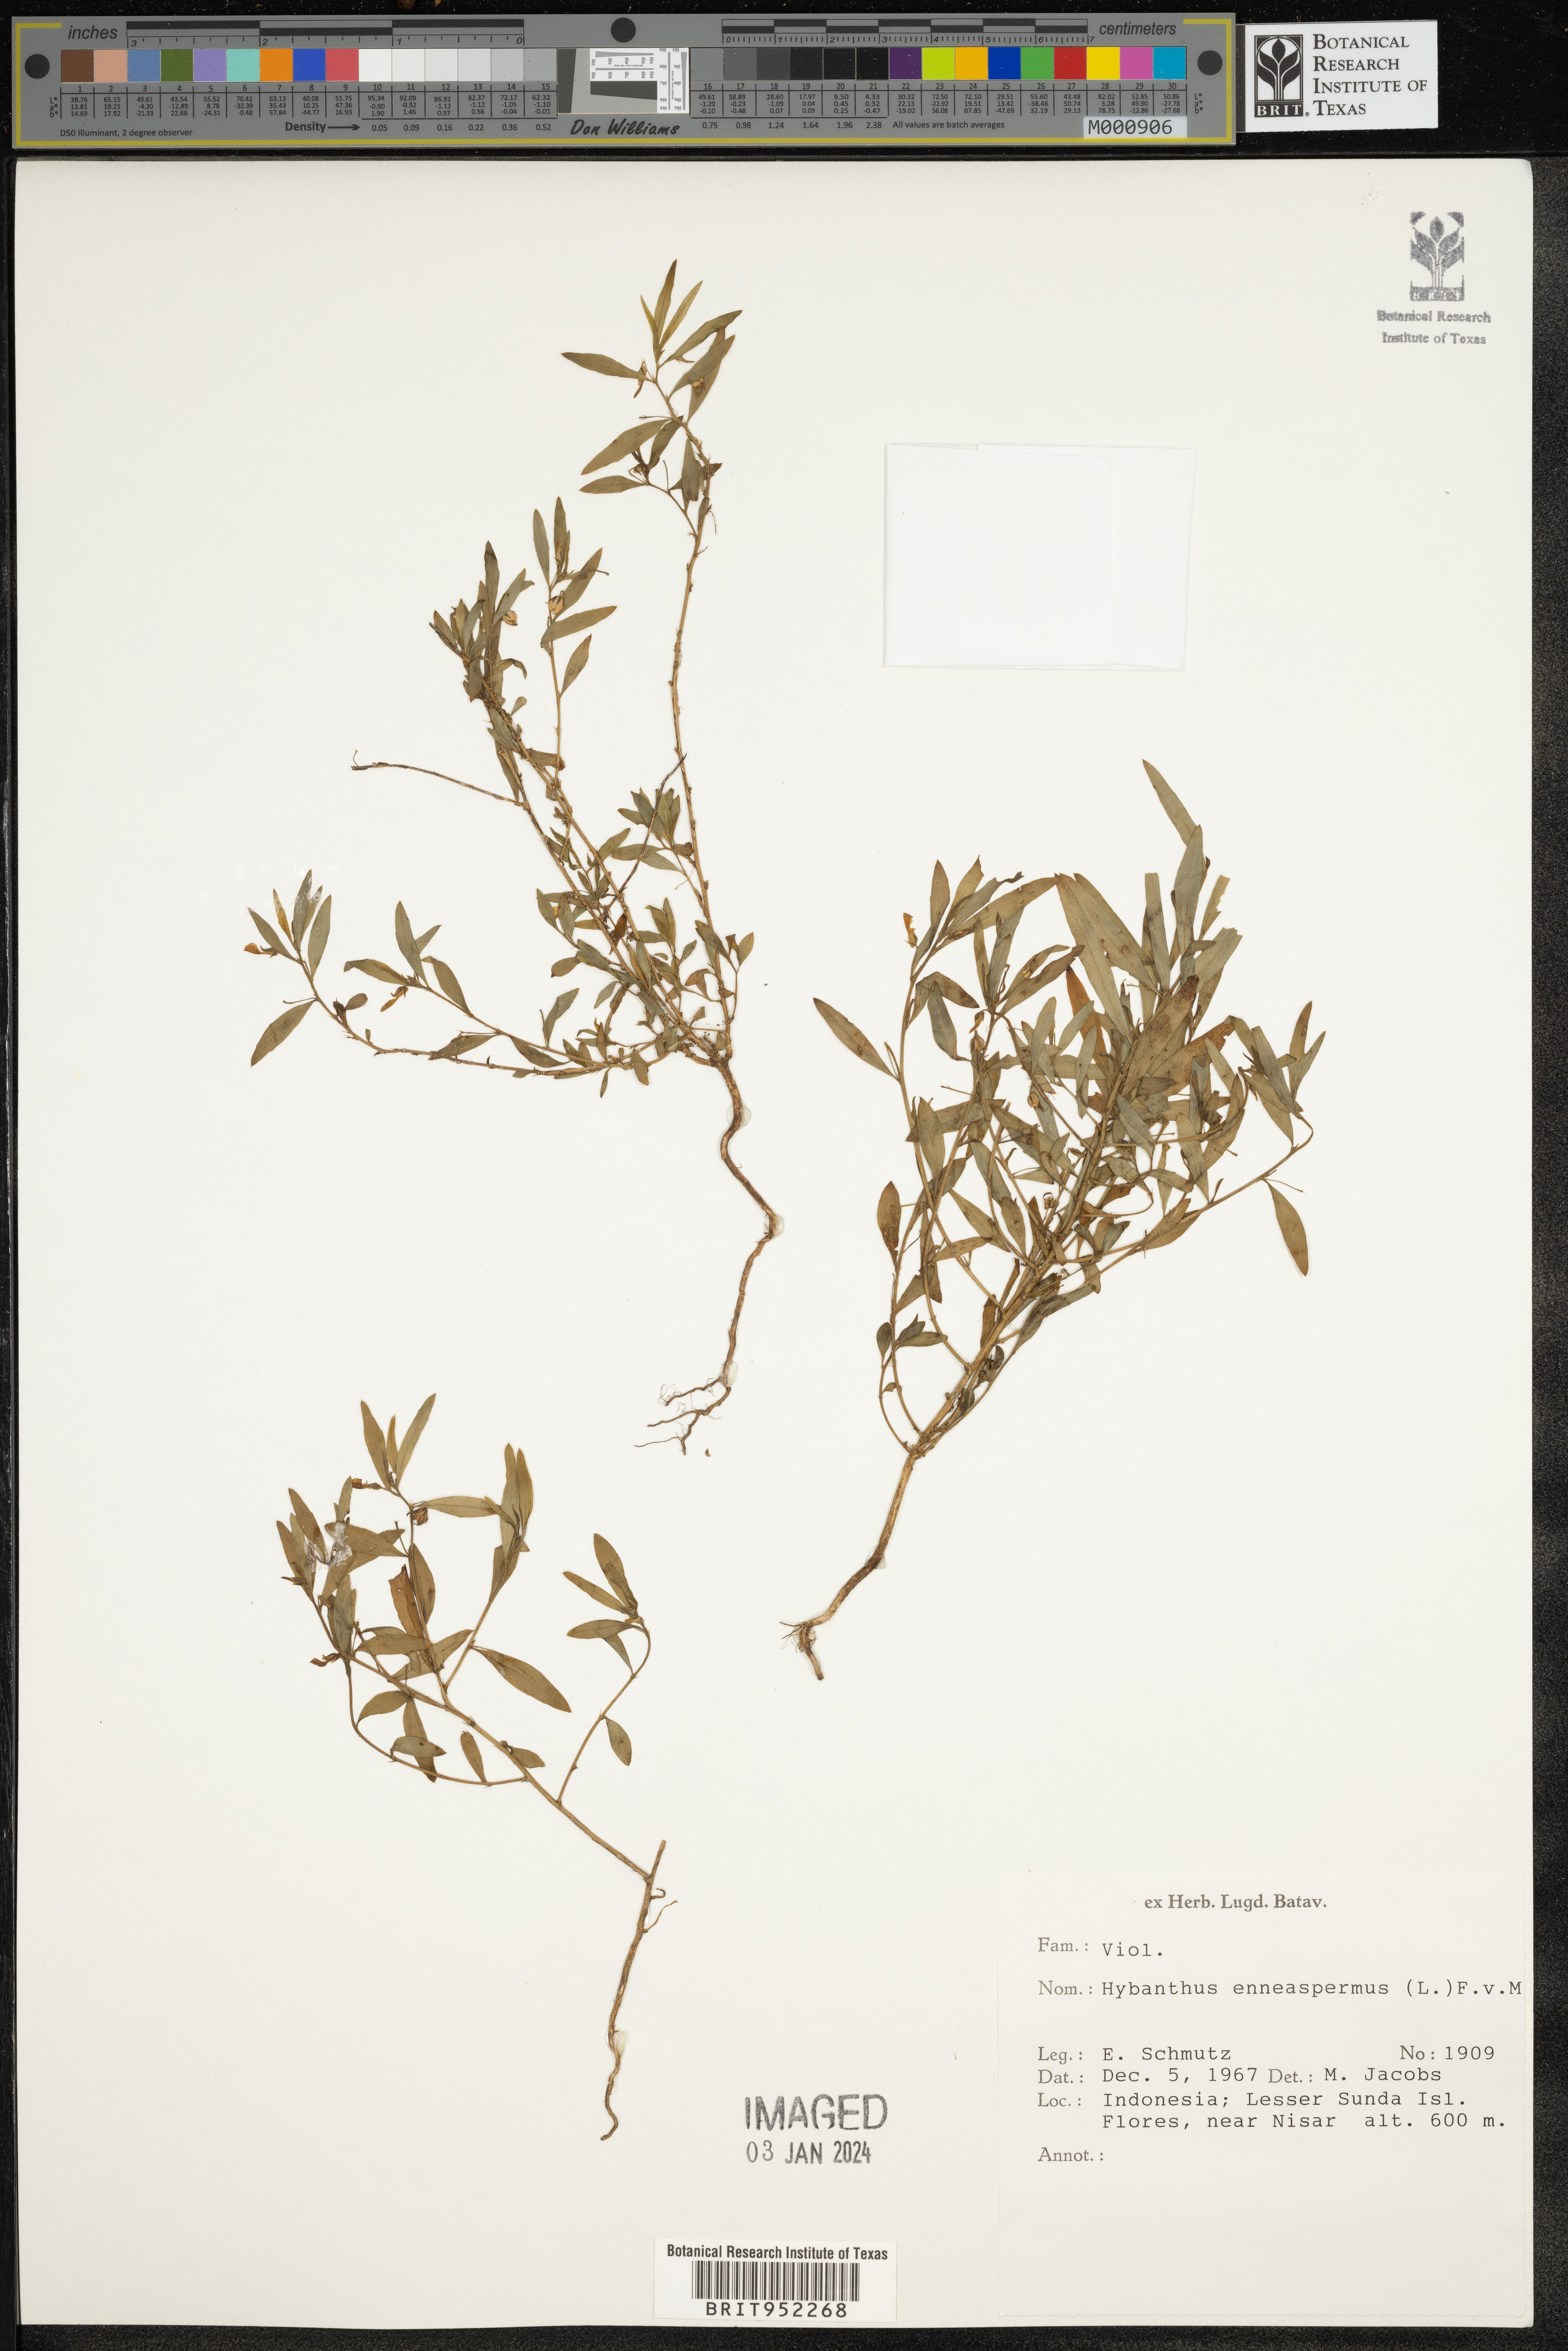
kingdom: Plantae
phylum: Tracheophyta
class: Magnoliopsida
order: Malpighiales
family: Violaceae
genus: Hybanthus
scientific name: Hybanthus
